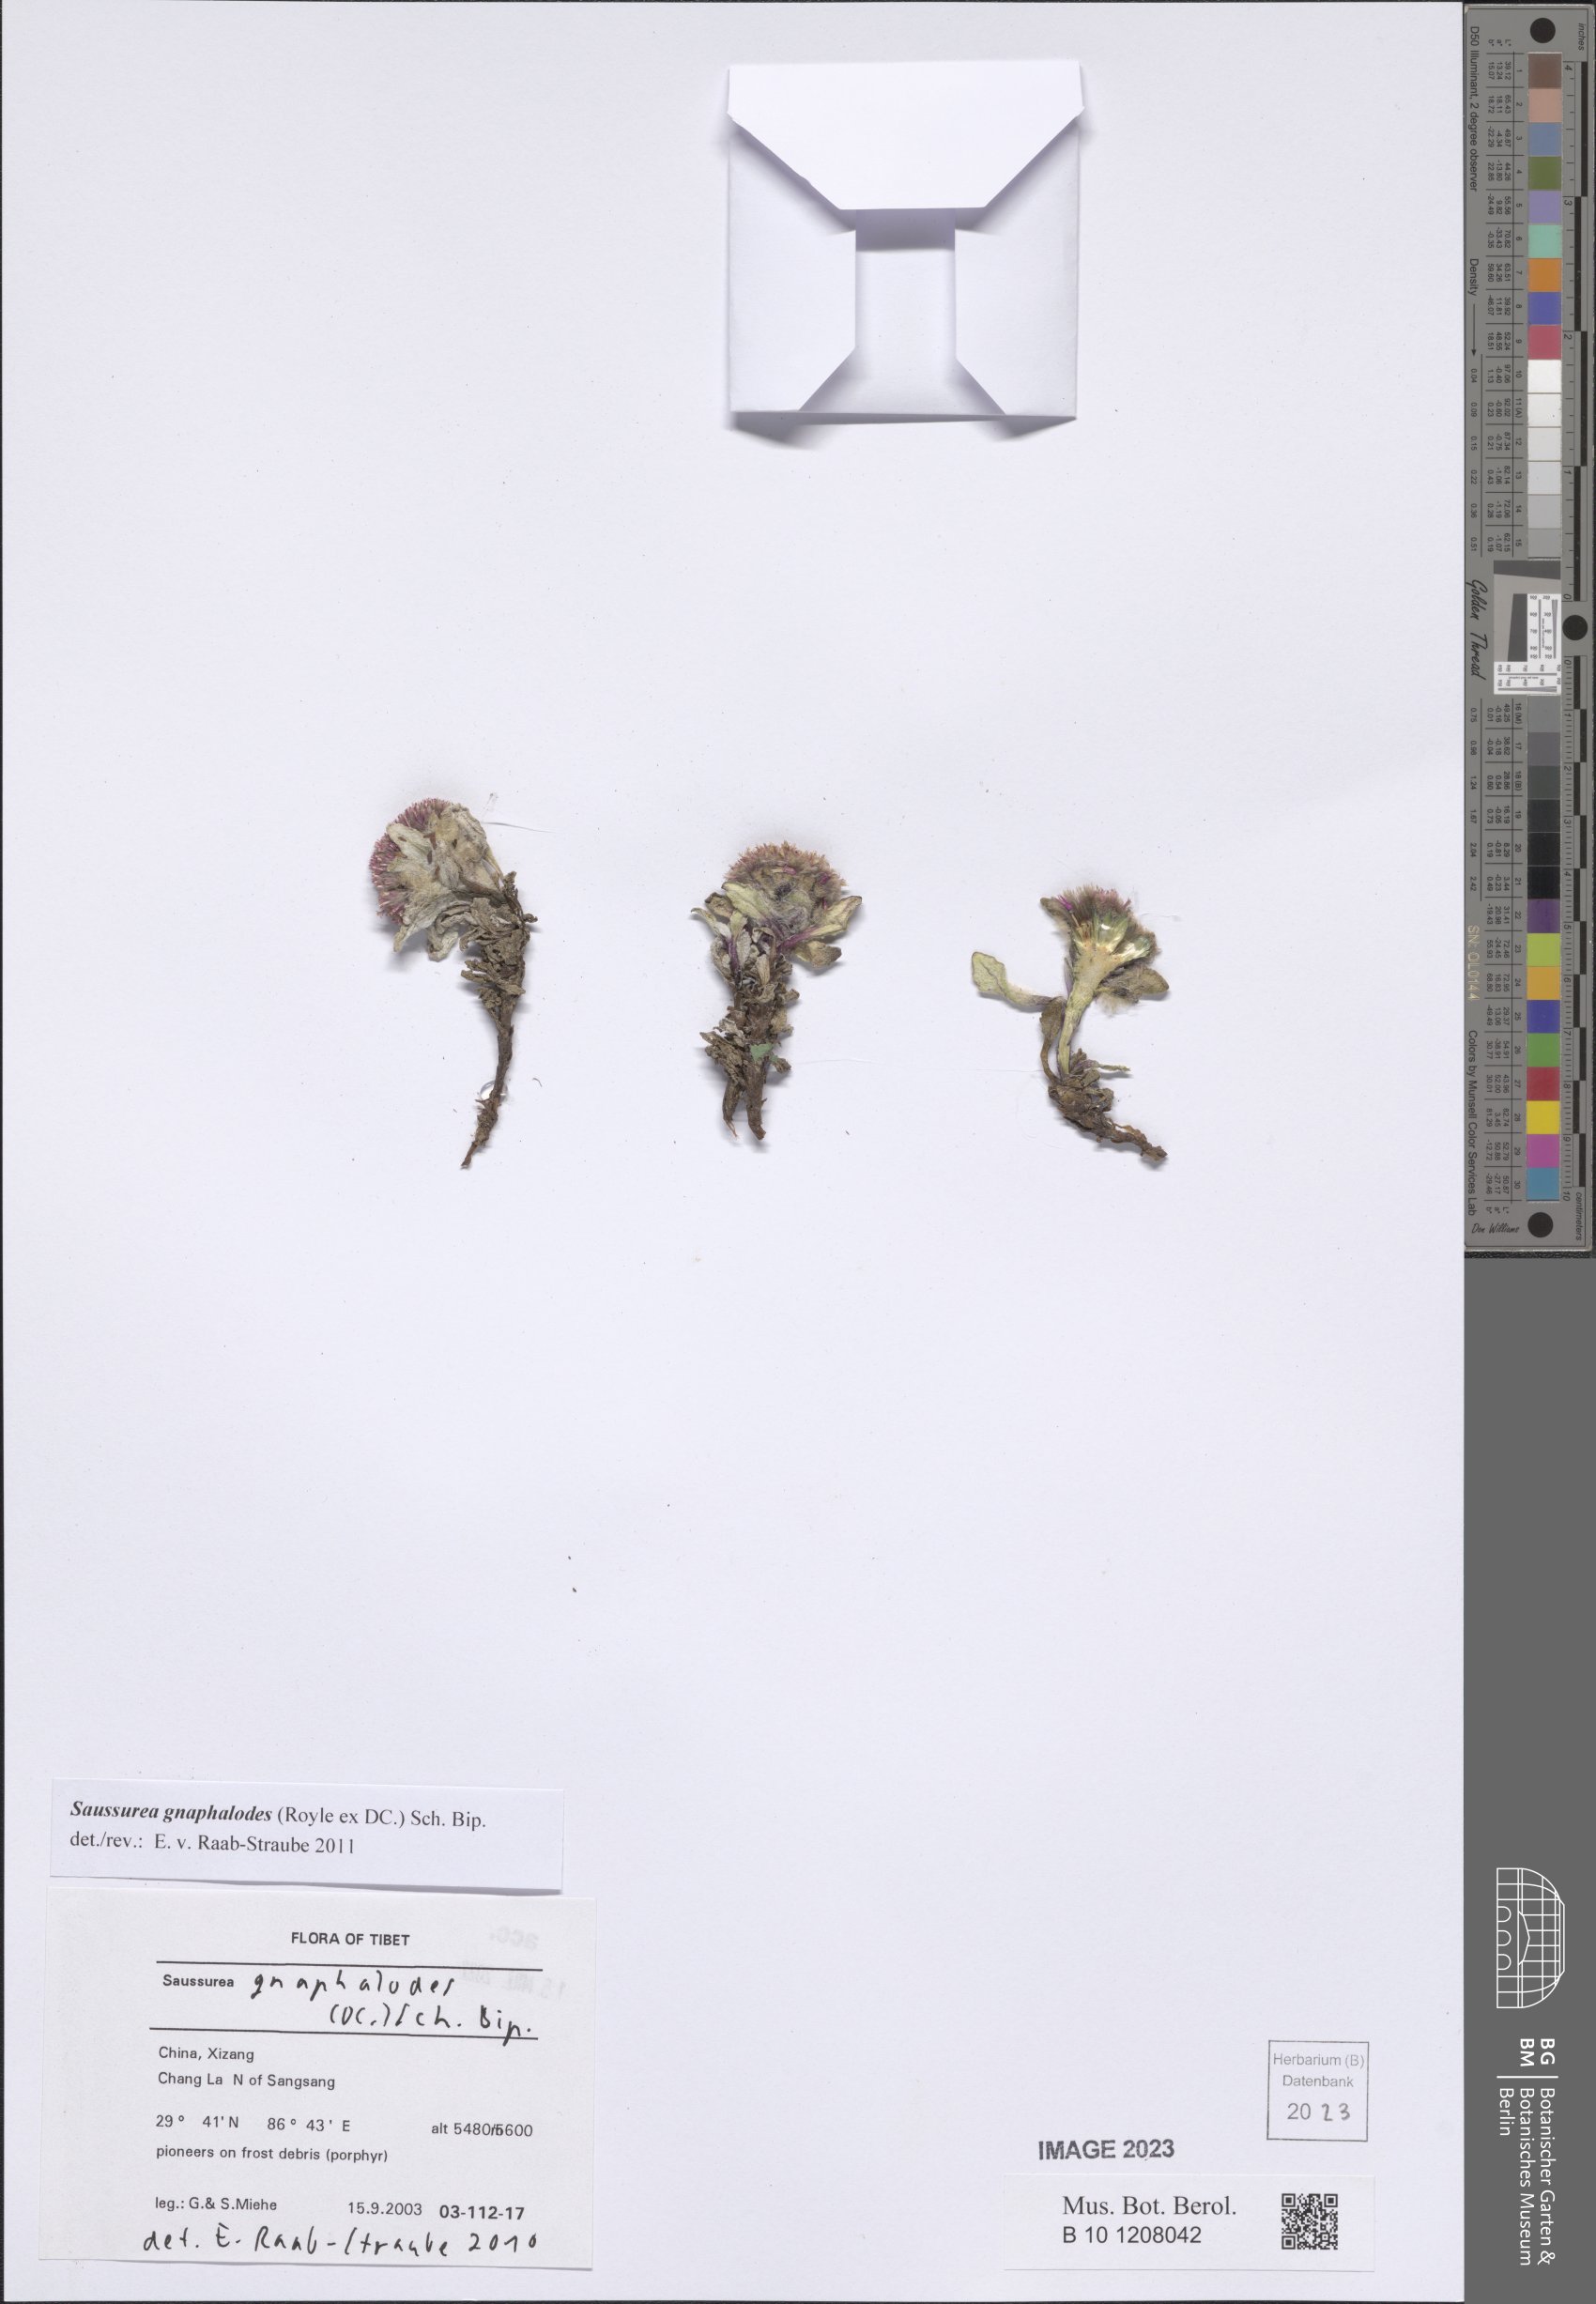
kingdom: Plantae
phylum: Tracheophyta
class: Magnoliopsida
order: Asterales
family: Asteraceae
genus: Saussurea
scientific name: Saussurea gnaphalodes
